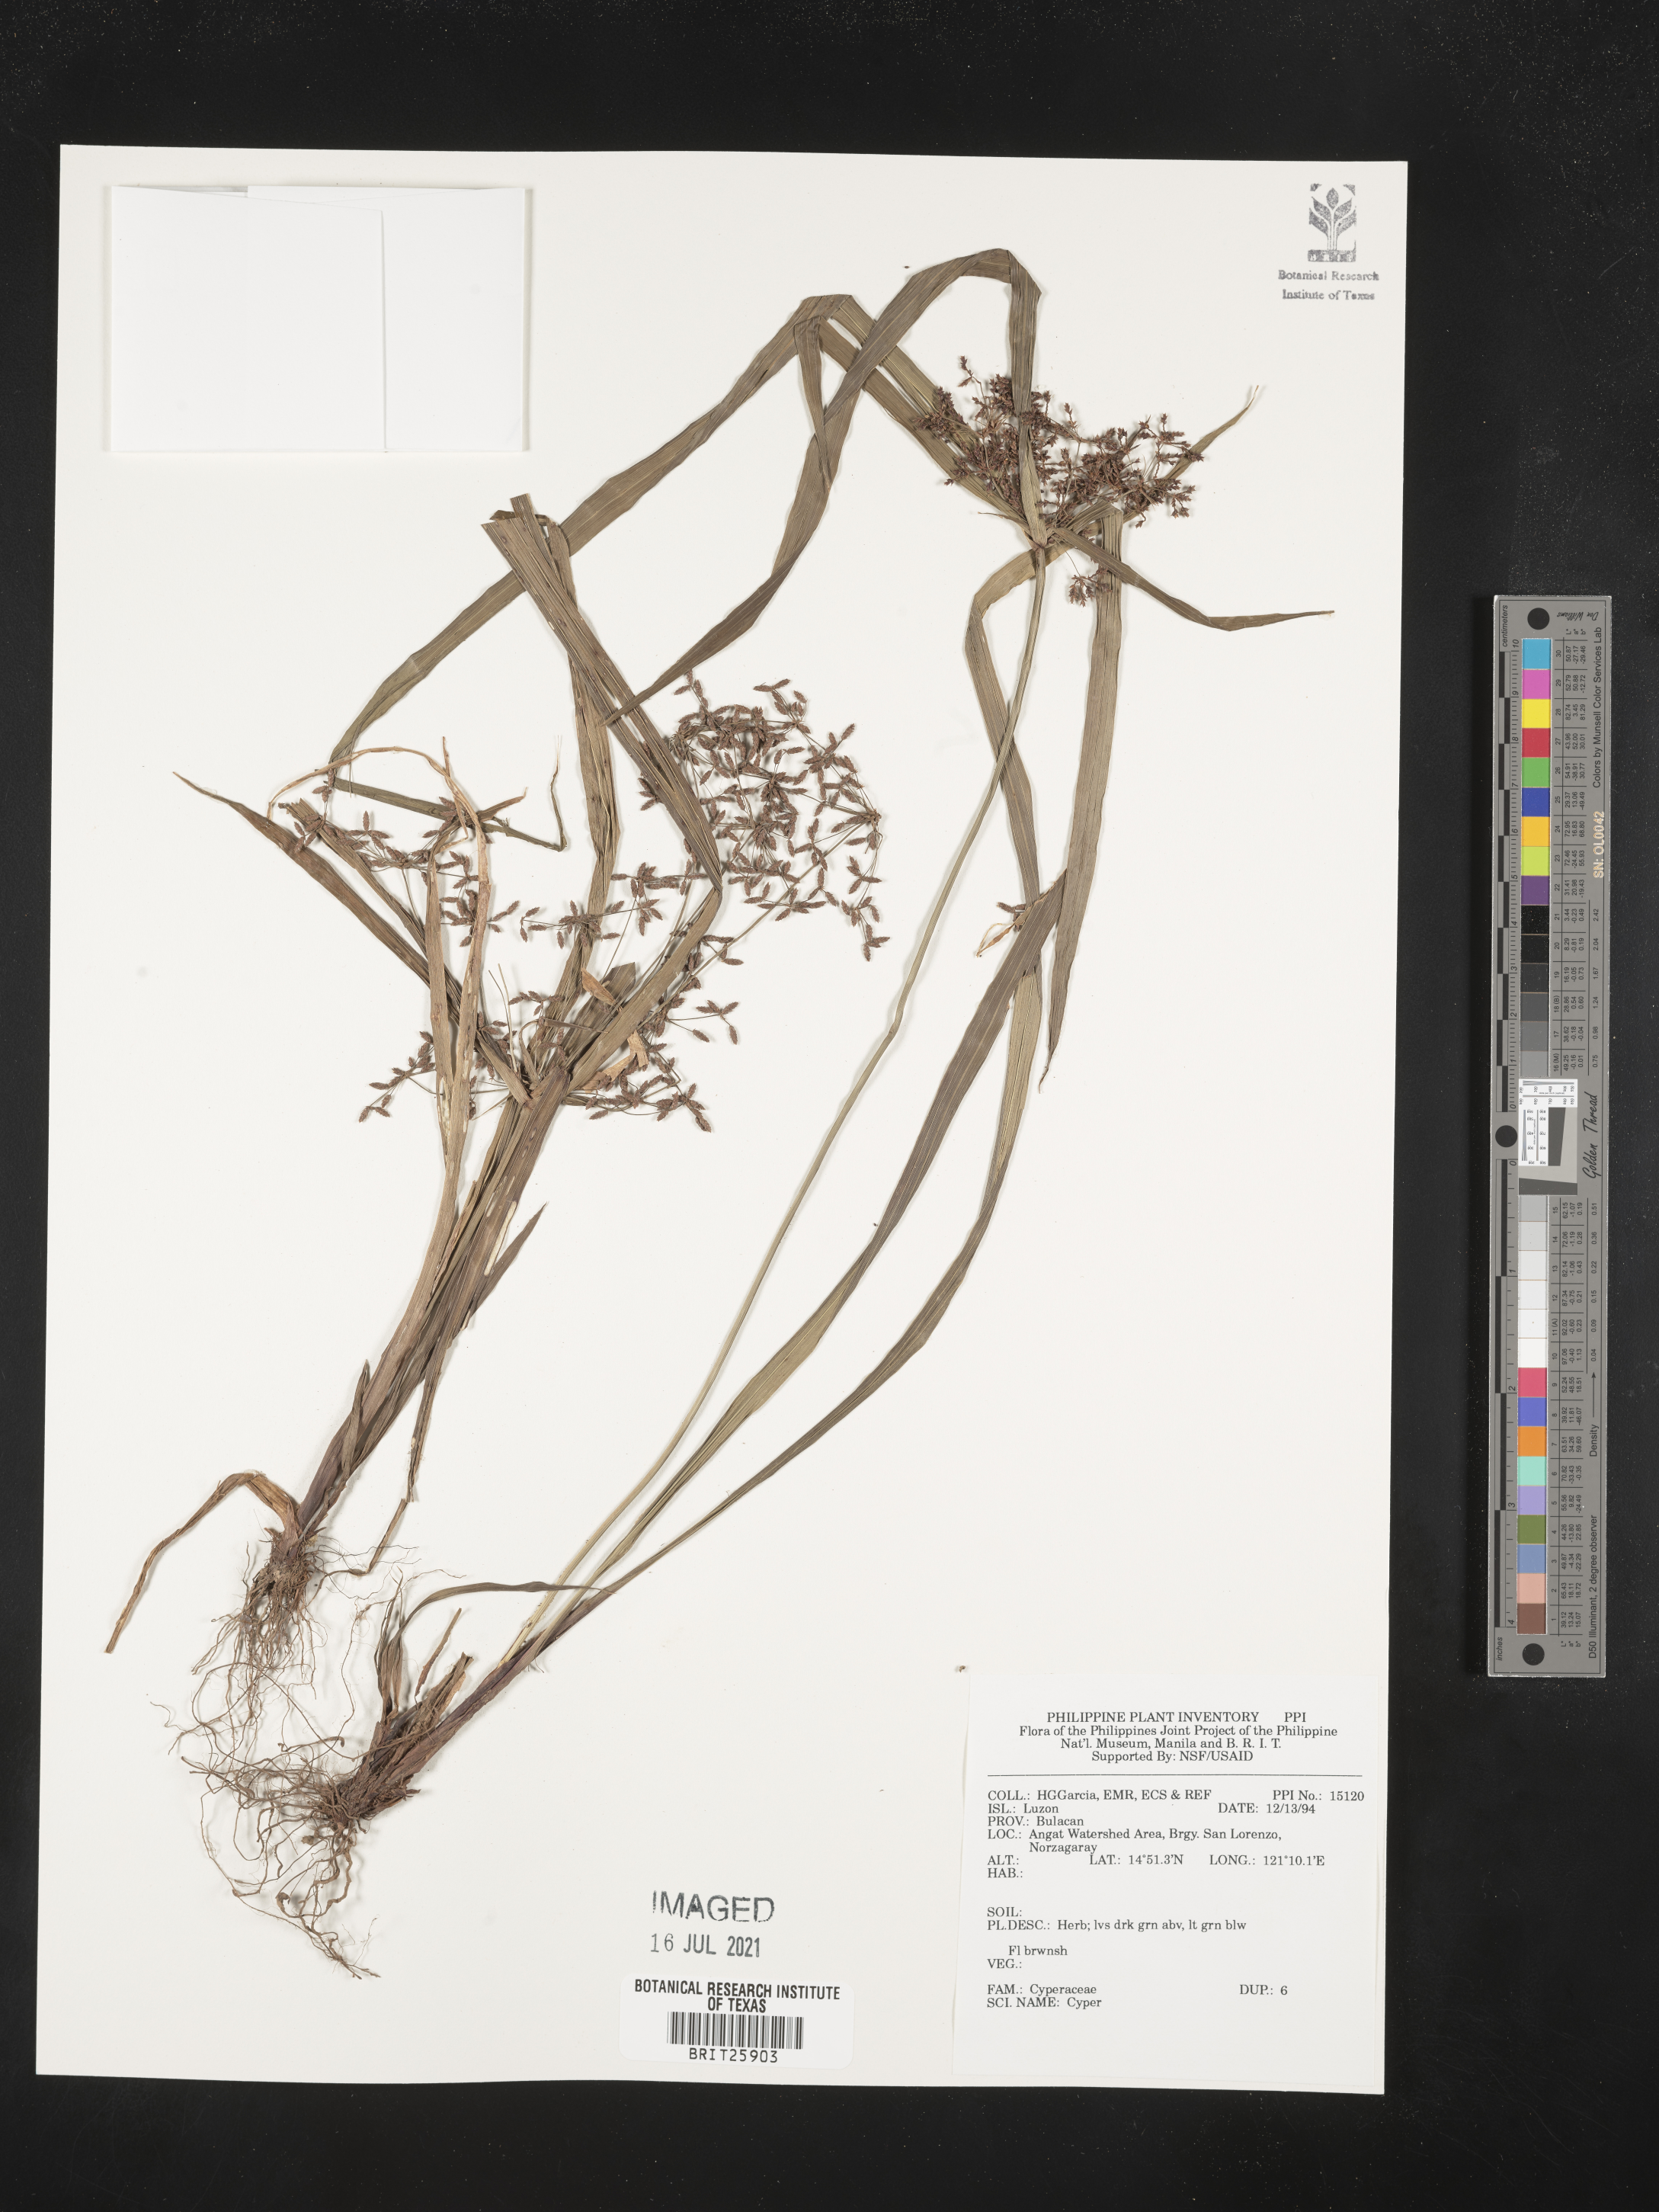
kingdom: Plantae
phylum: Tracheophyta
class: Liliopsida
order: Poales
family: Cyperaceae
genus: Cyperus
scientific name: Cyperus
